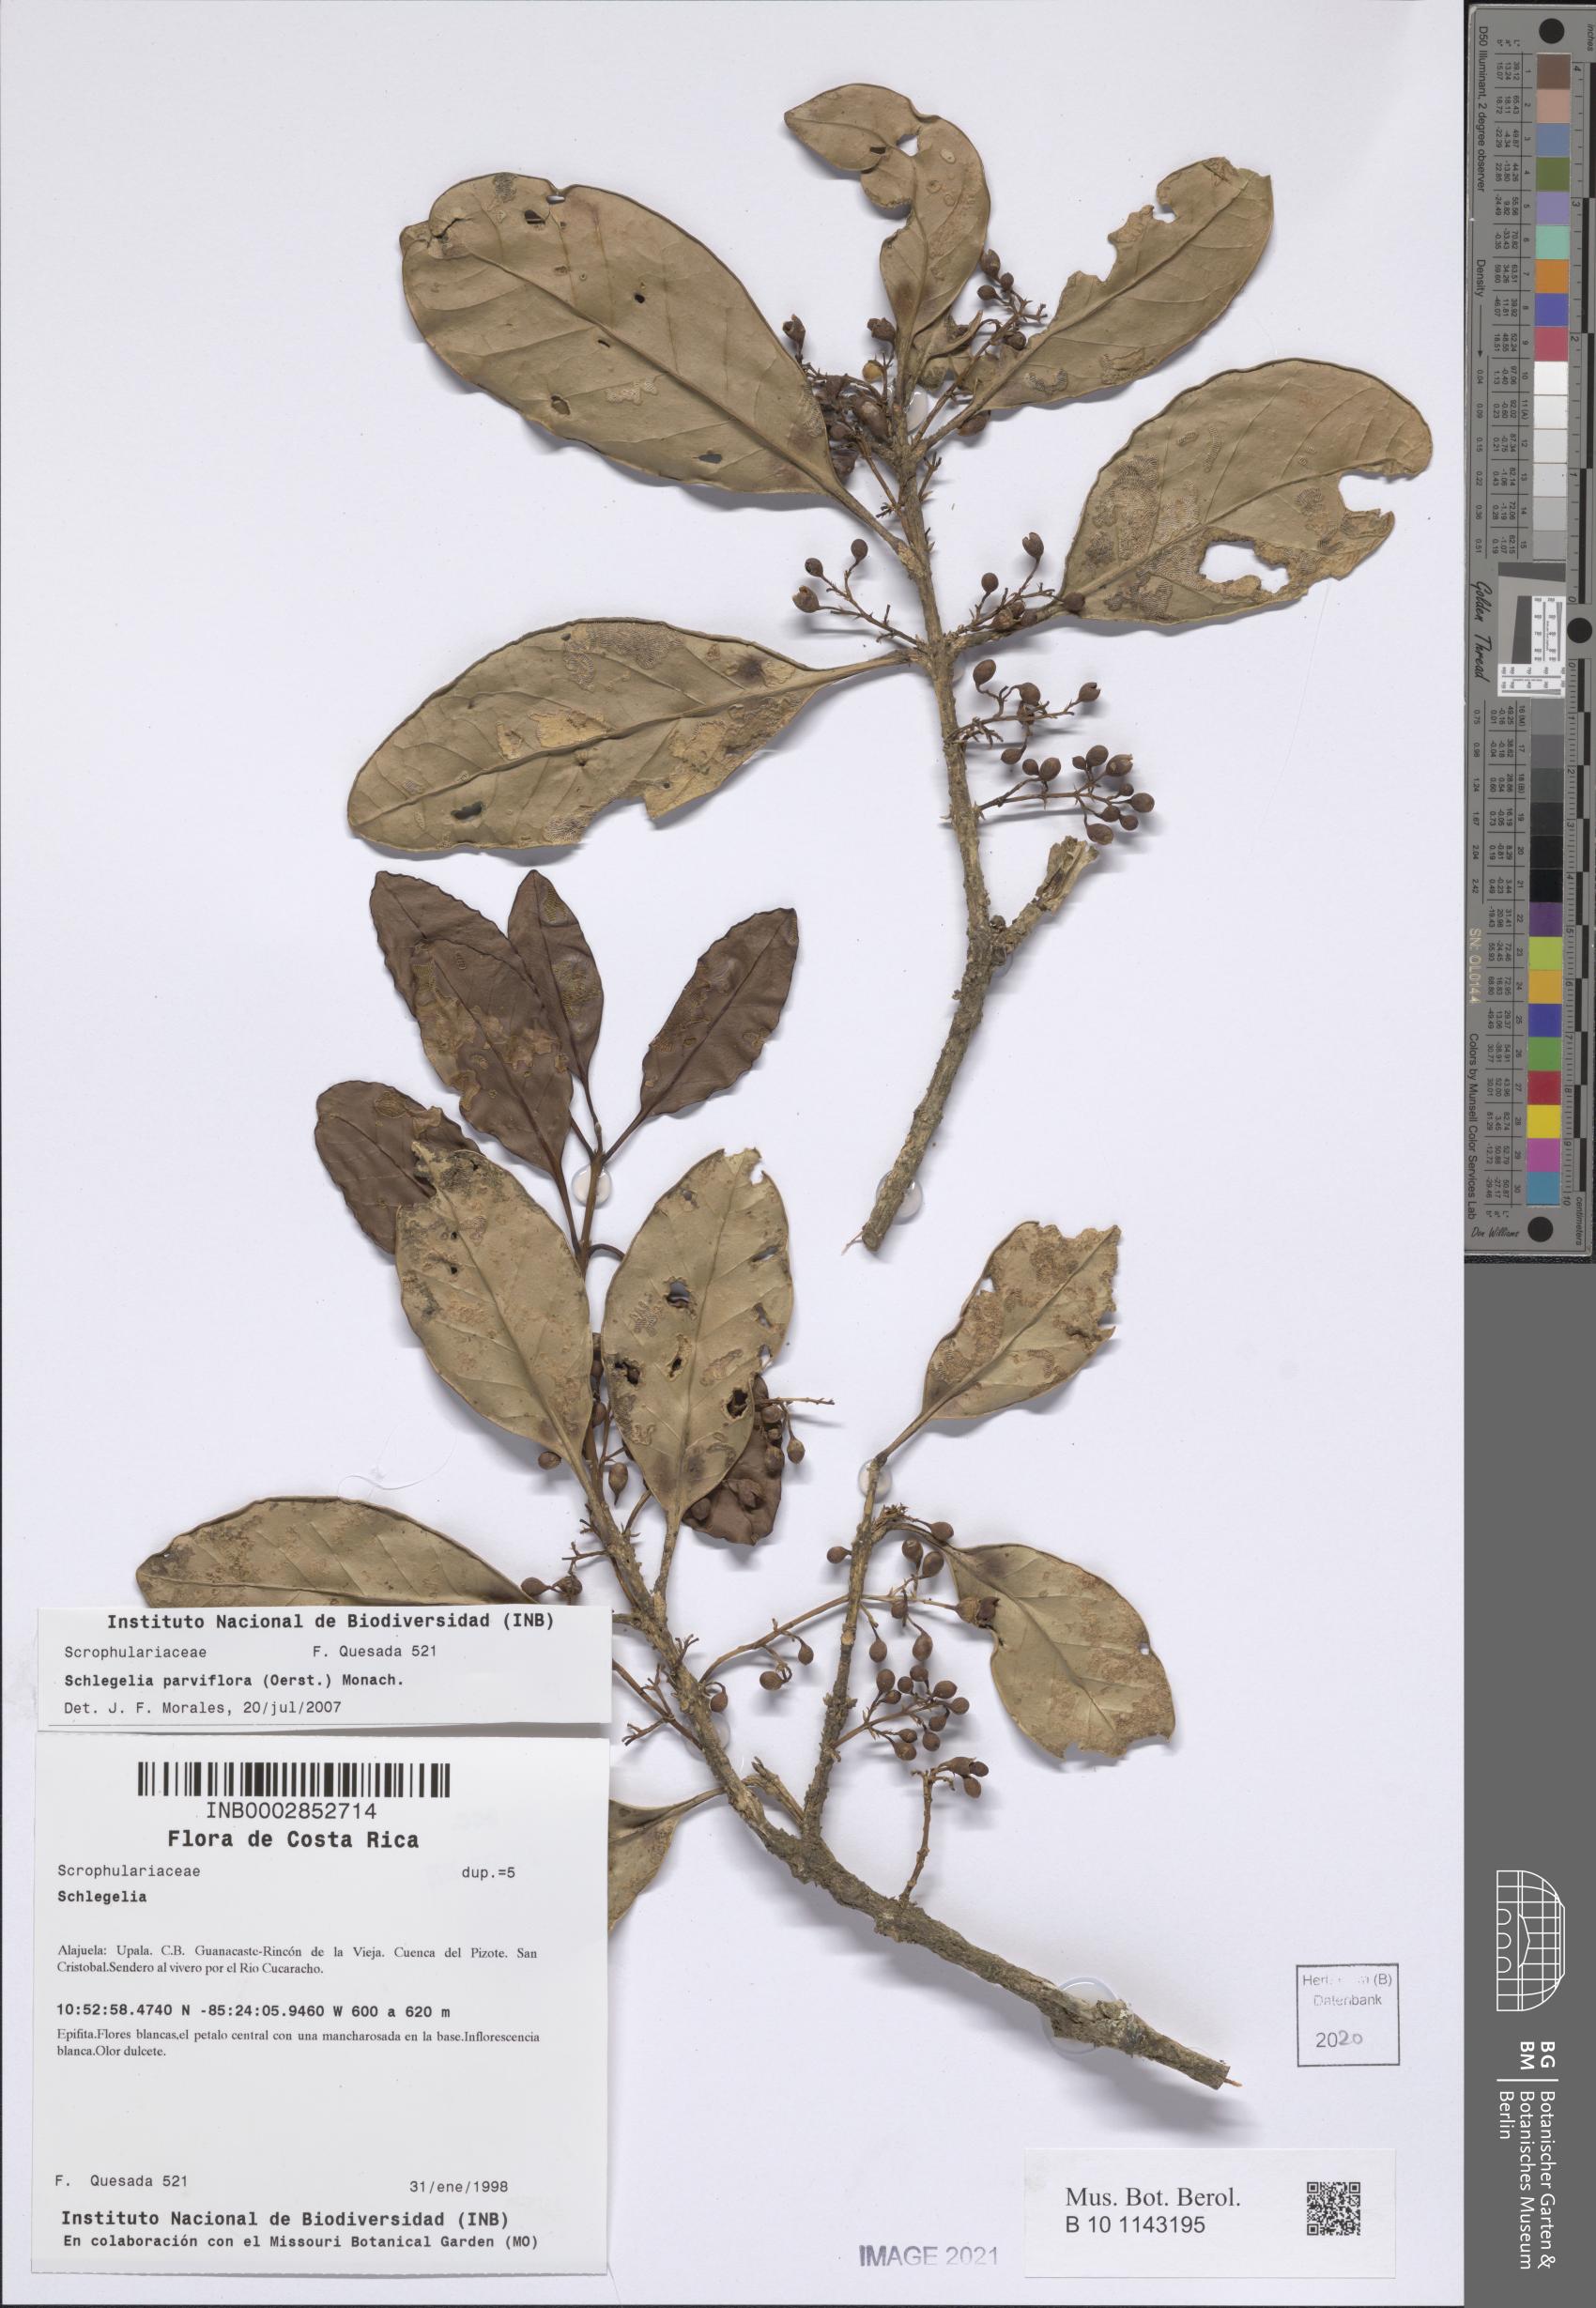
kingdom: Plantae
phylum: Tracheophyta
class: Magnoliopsida
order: Lamiales
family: Schlegeliaceae
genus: Schlegelia
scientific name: Schlegelia parviflora
